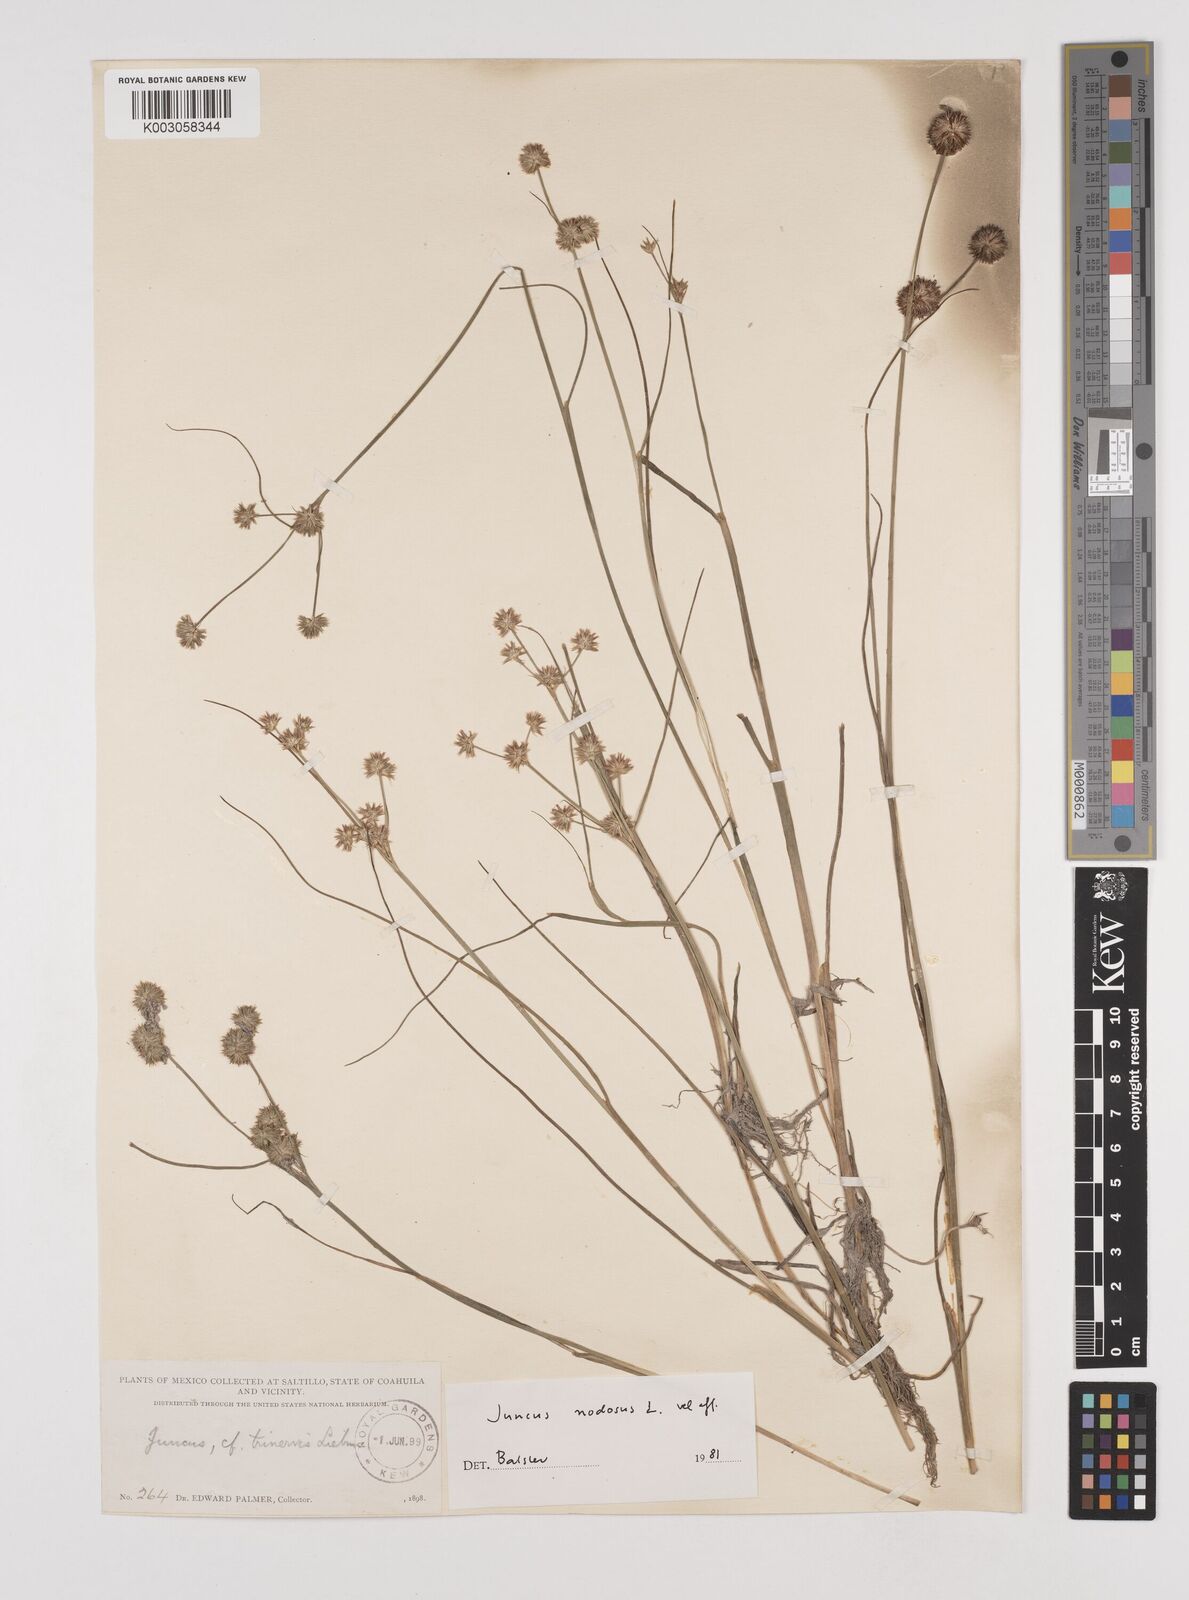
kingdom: Plantae
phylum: Tracheophyta
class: Liliopsida
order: Poales
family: Juncaceae
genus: Juncus
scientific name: Juncus nodosus
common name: Knotted rush
